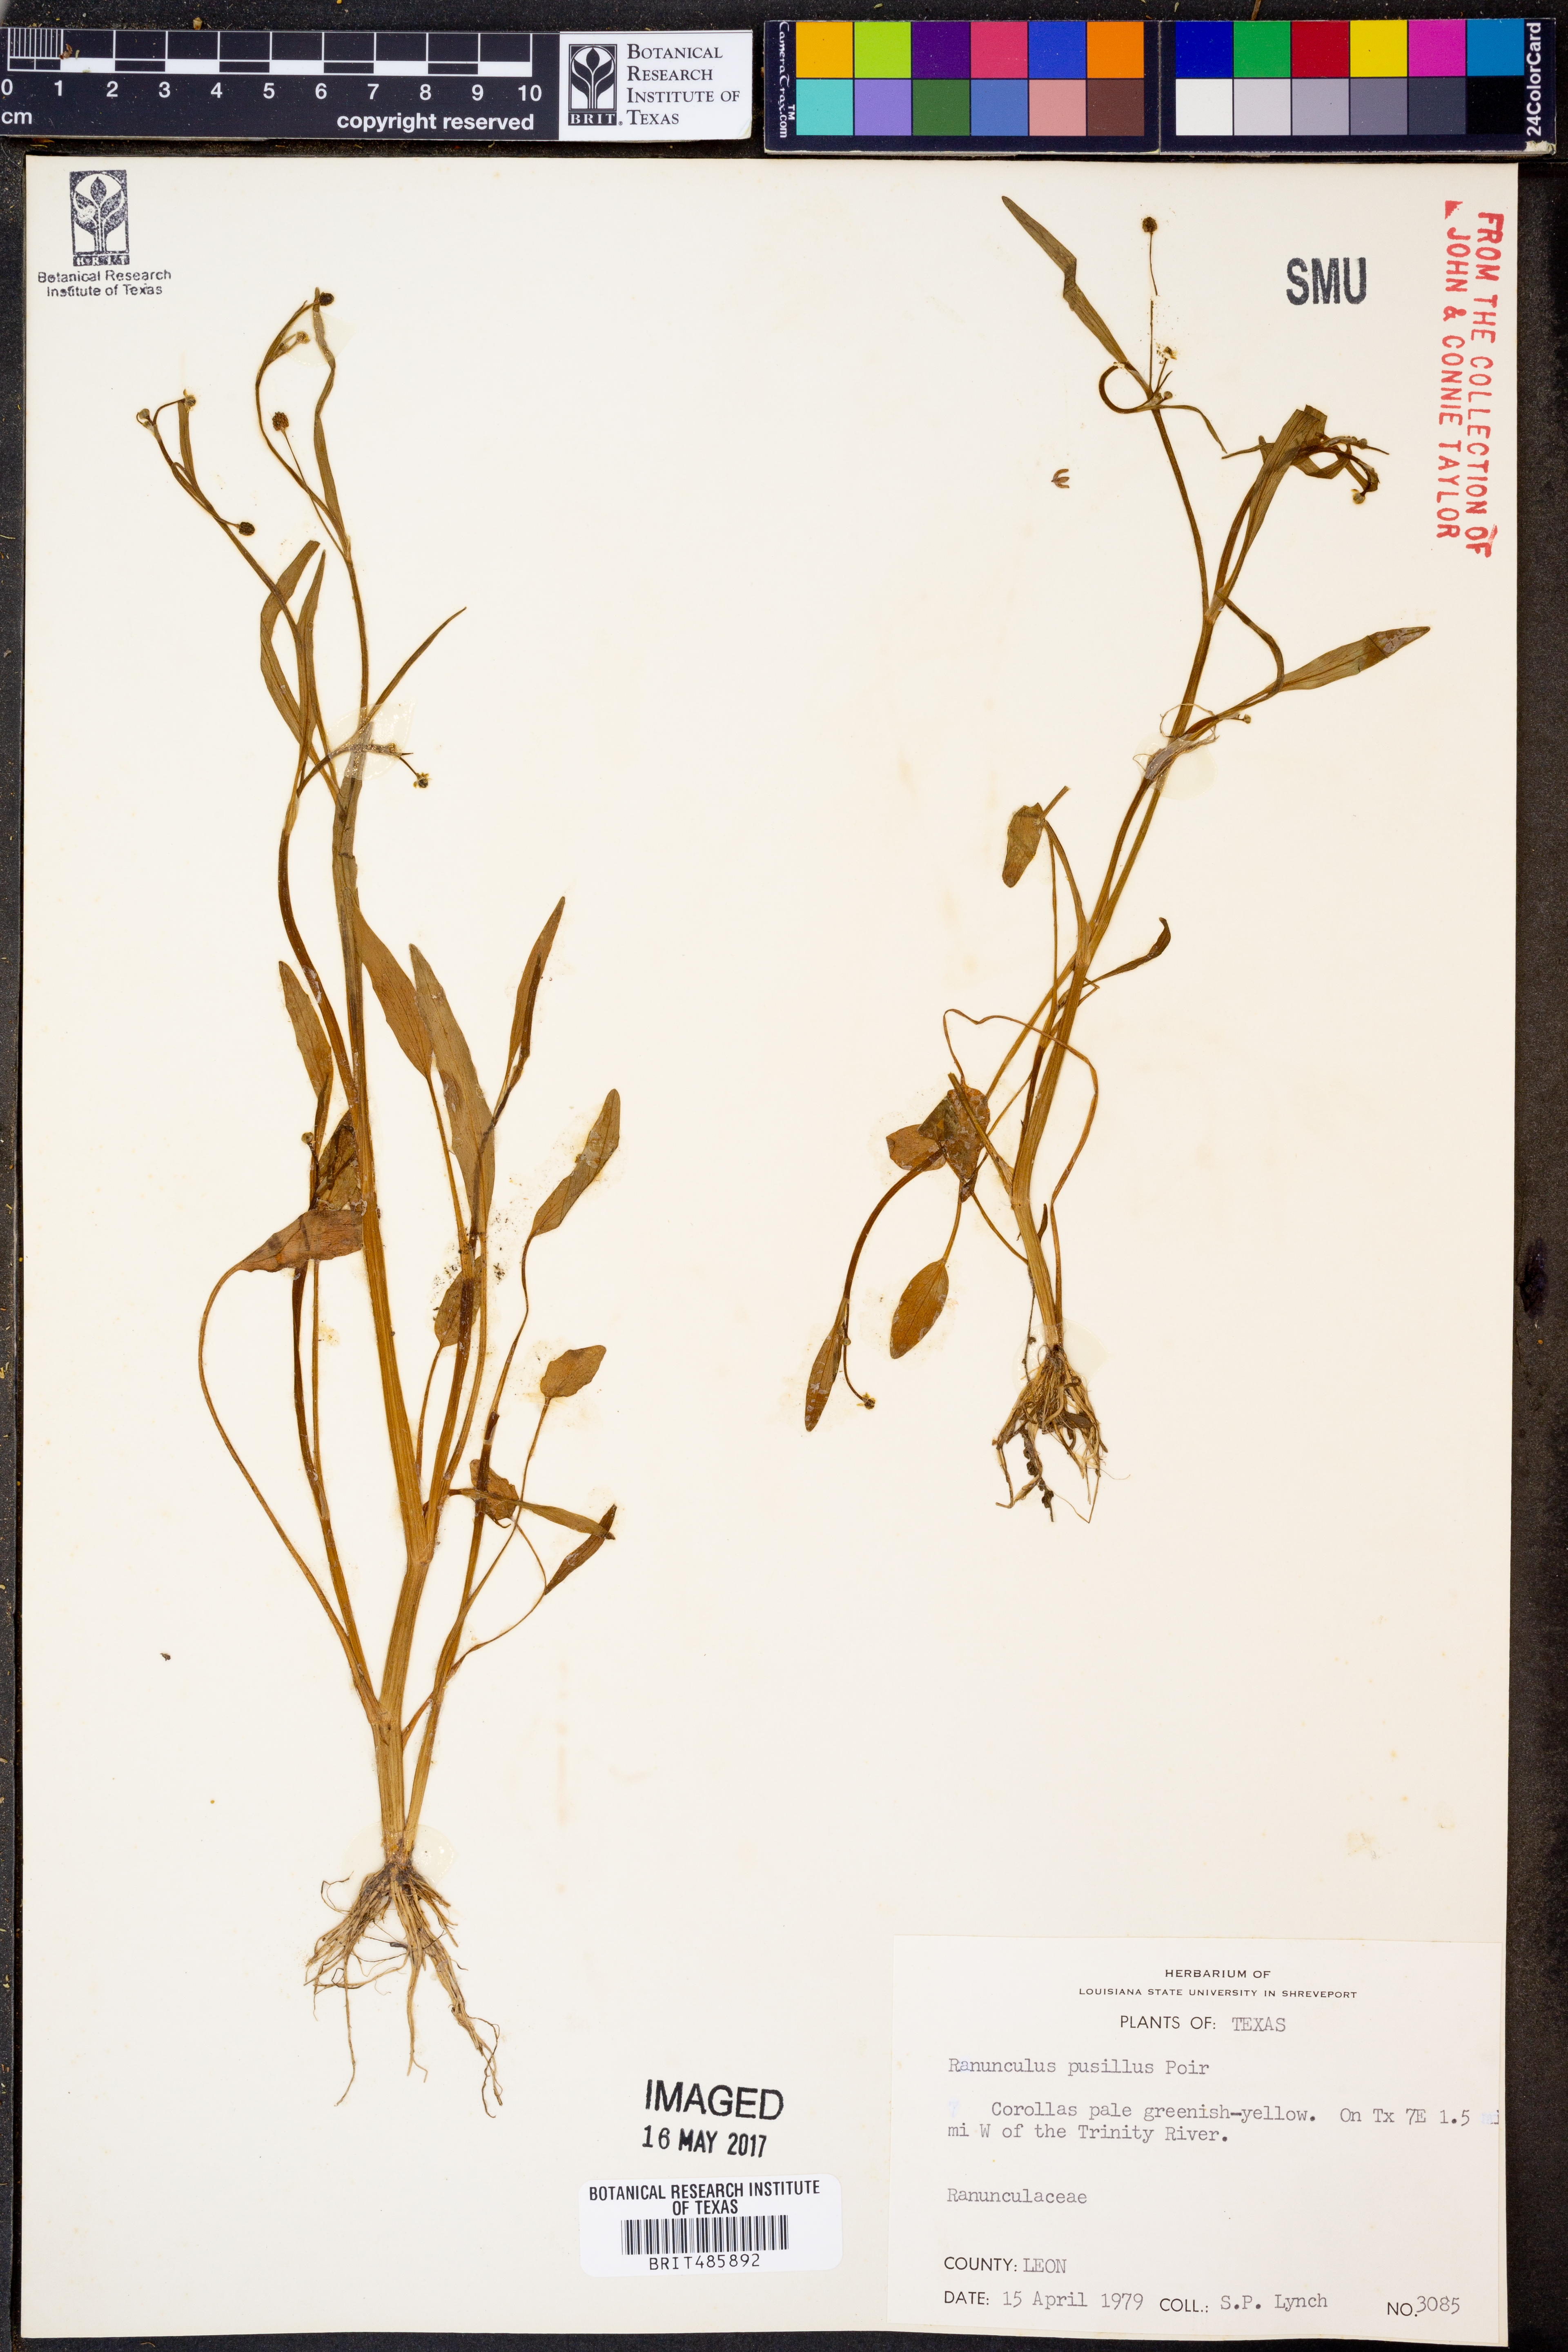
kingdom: Plantae
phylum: Tracheophyta
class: Magnoliopsida
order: Ranunculales
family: Ranunculaceae
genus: Ranunculus
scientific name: Ranunculus pusillus
